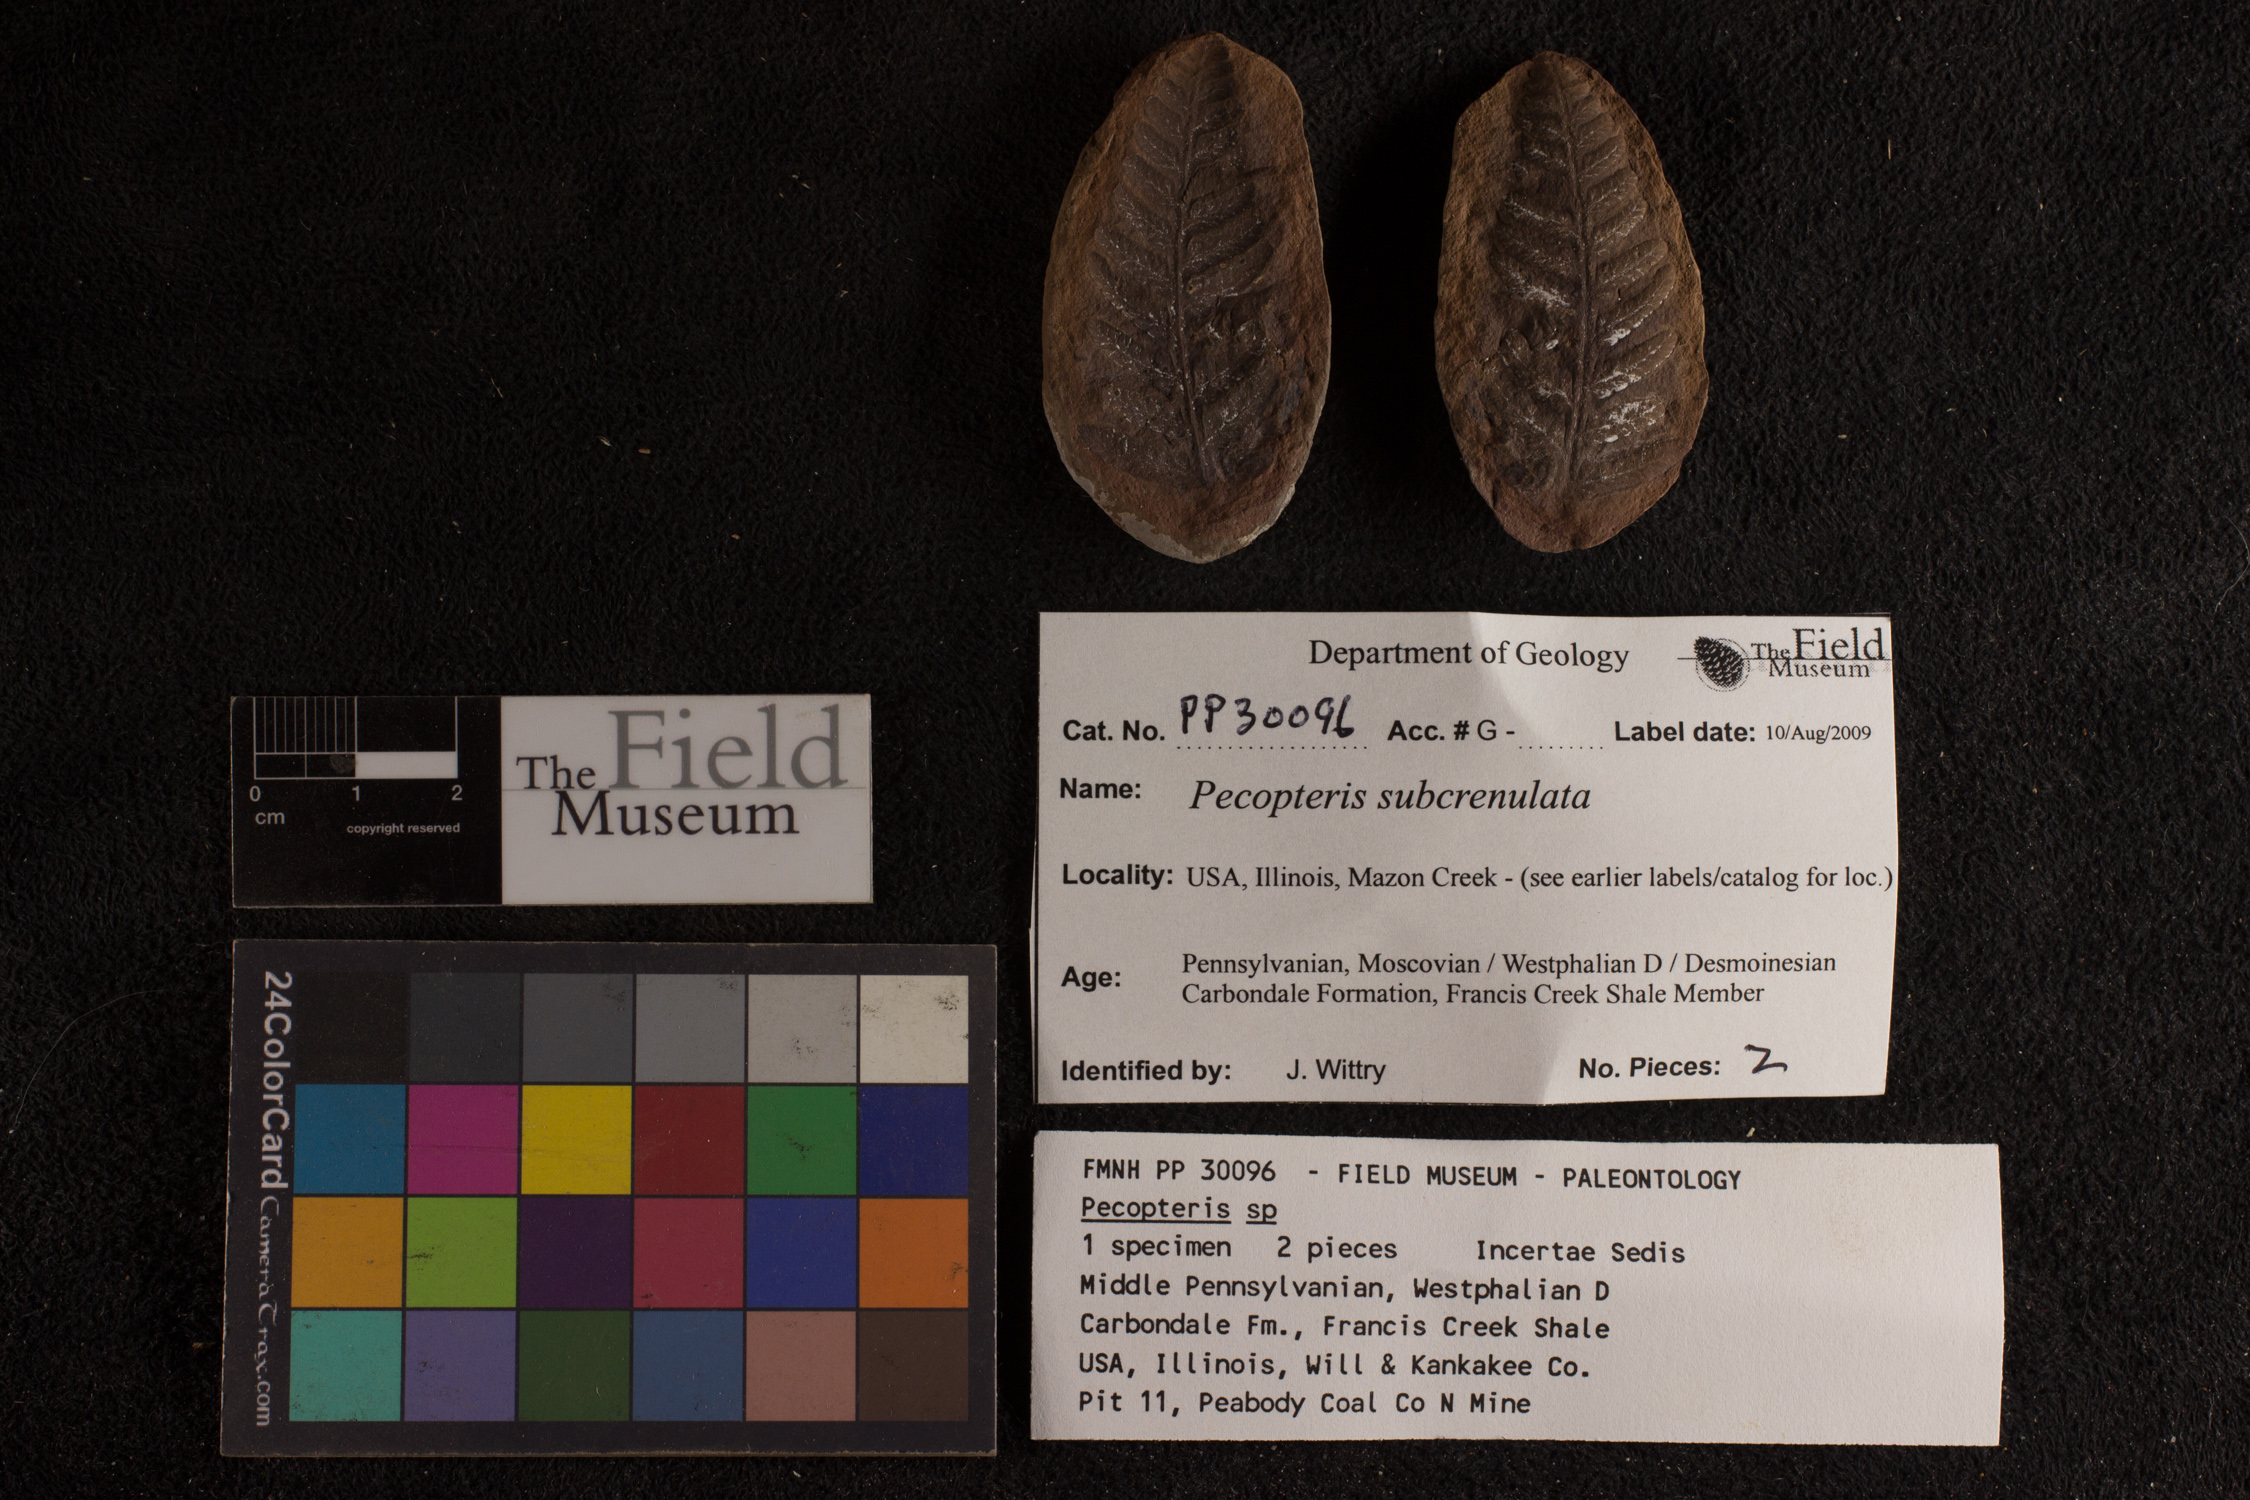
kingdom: Plantae
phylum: Tracheophyta
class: Polypodiopsida
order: Marattiales
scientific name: Marattiales
